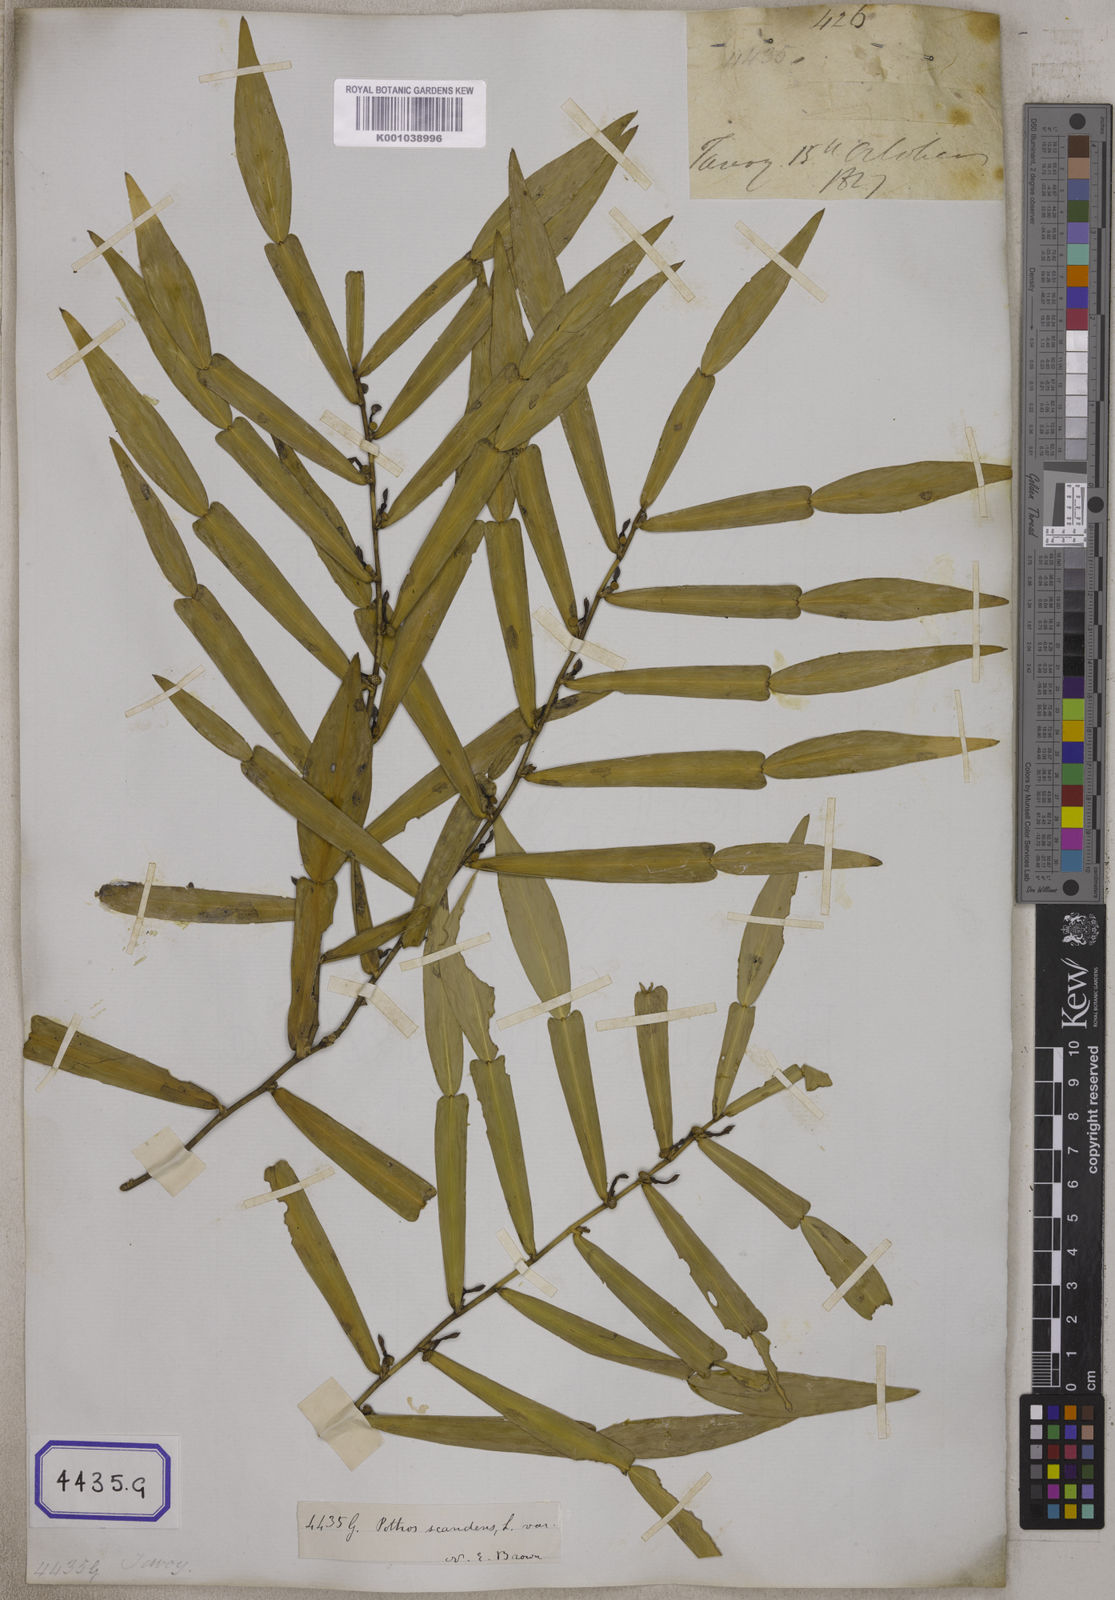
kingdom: Plantae
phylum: Tracheophyta
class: Liliopsida
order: Alismatales
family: Araceae
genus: Pothos
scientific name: Pothos scandens
